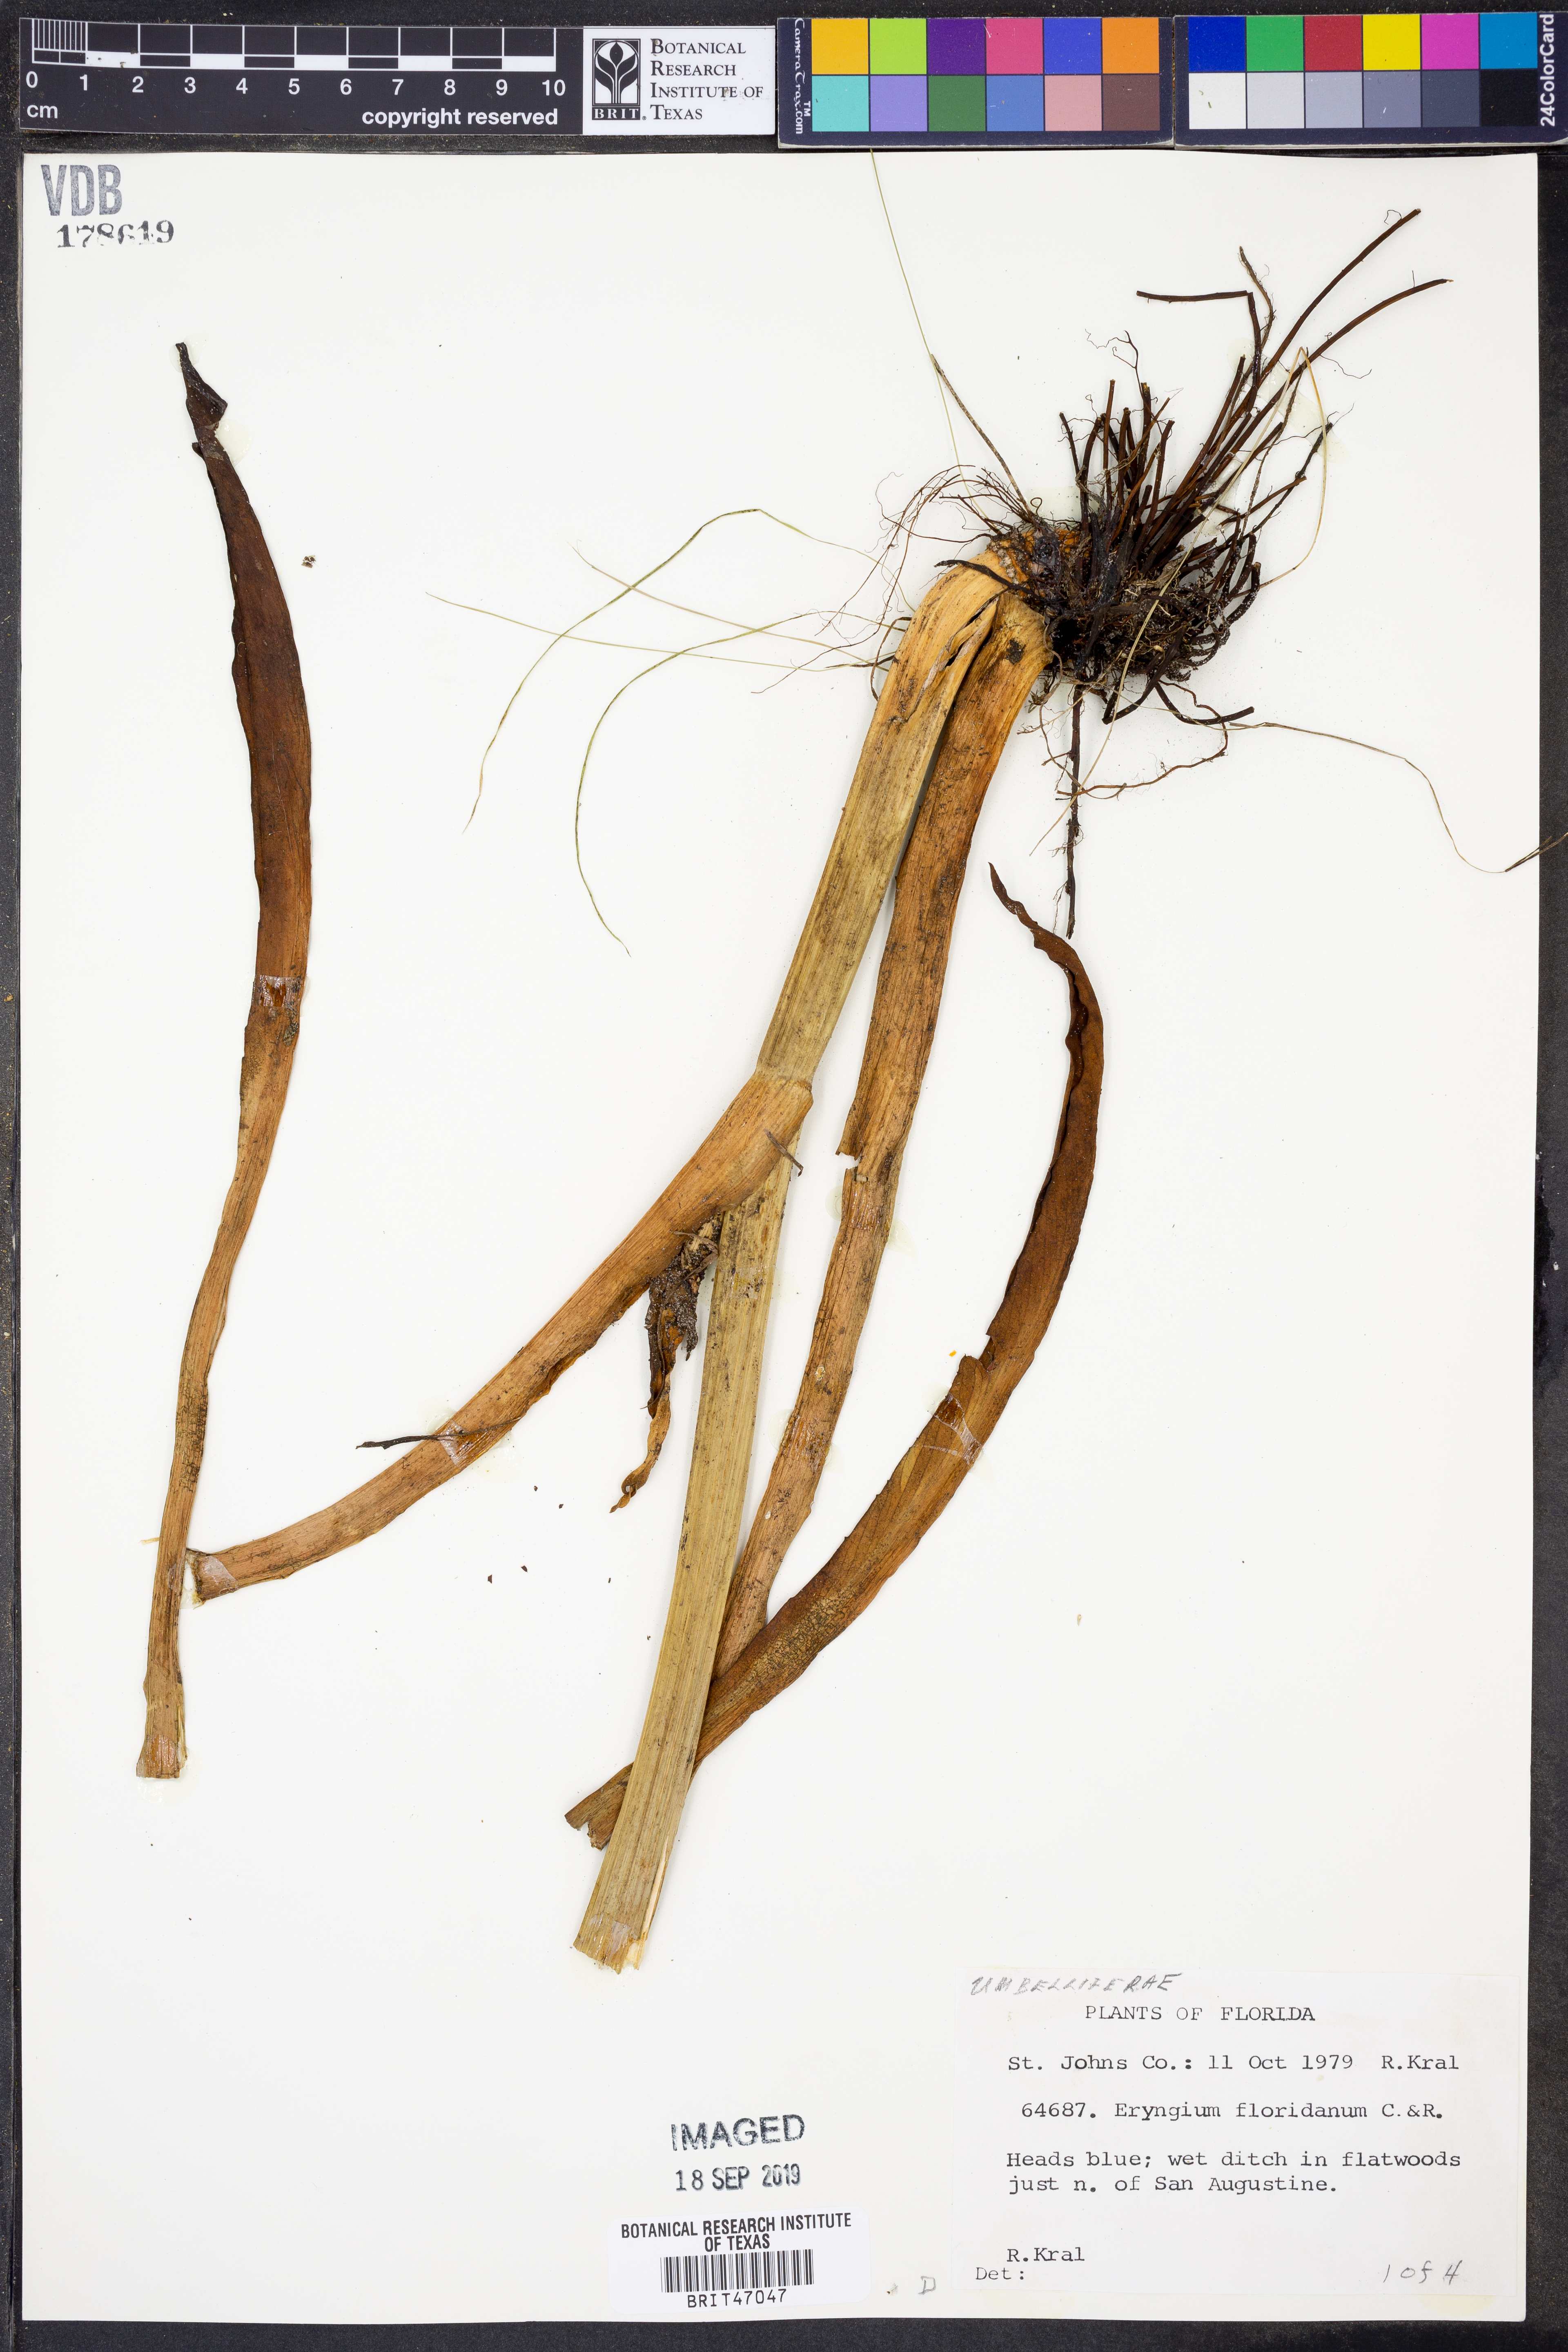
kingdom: Plantae
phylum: Tracheophyta
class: Magnoliopsida
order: Apiales
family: Apiaceae
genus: Eryngium
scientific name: Eryngium aquaticum
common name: Water eryngo
